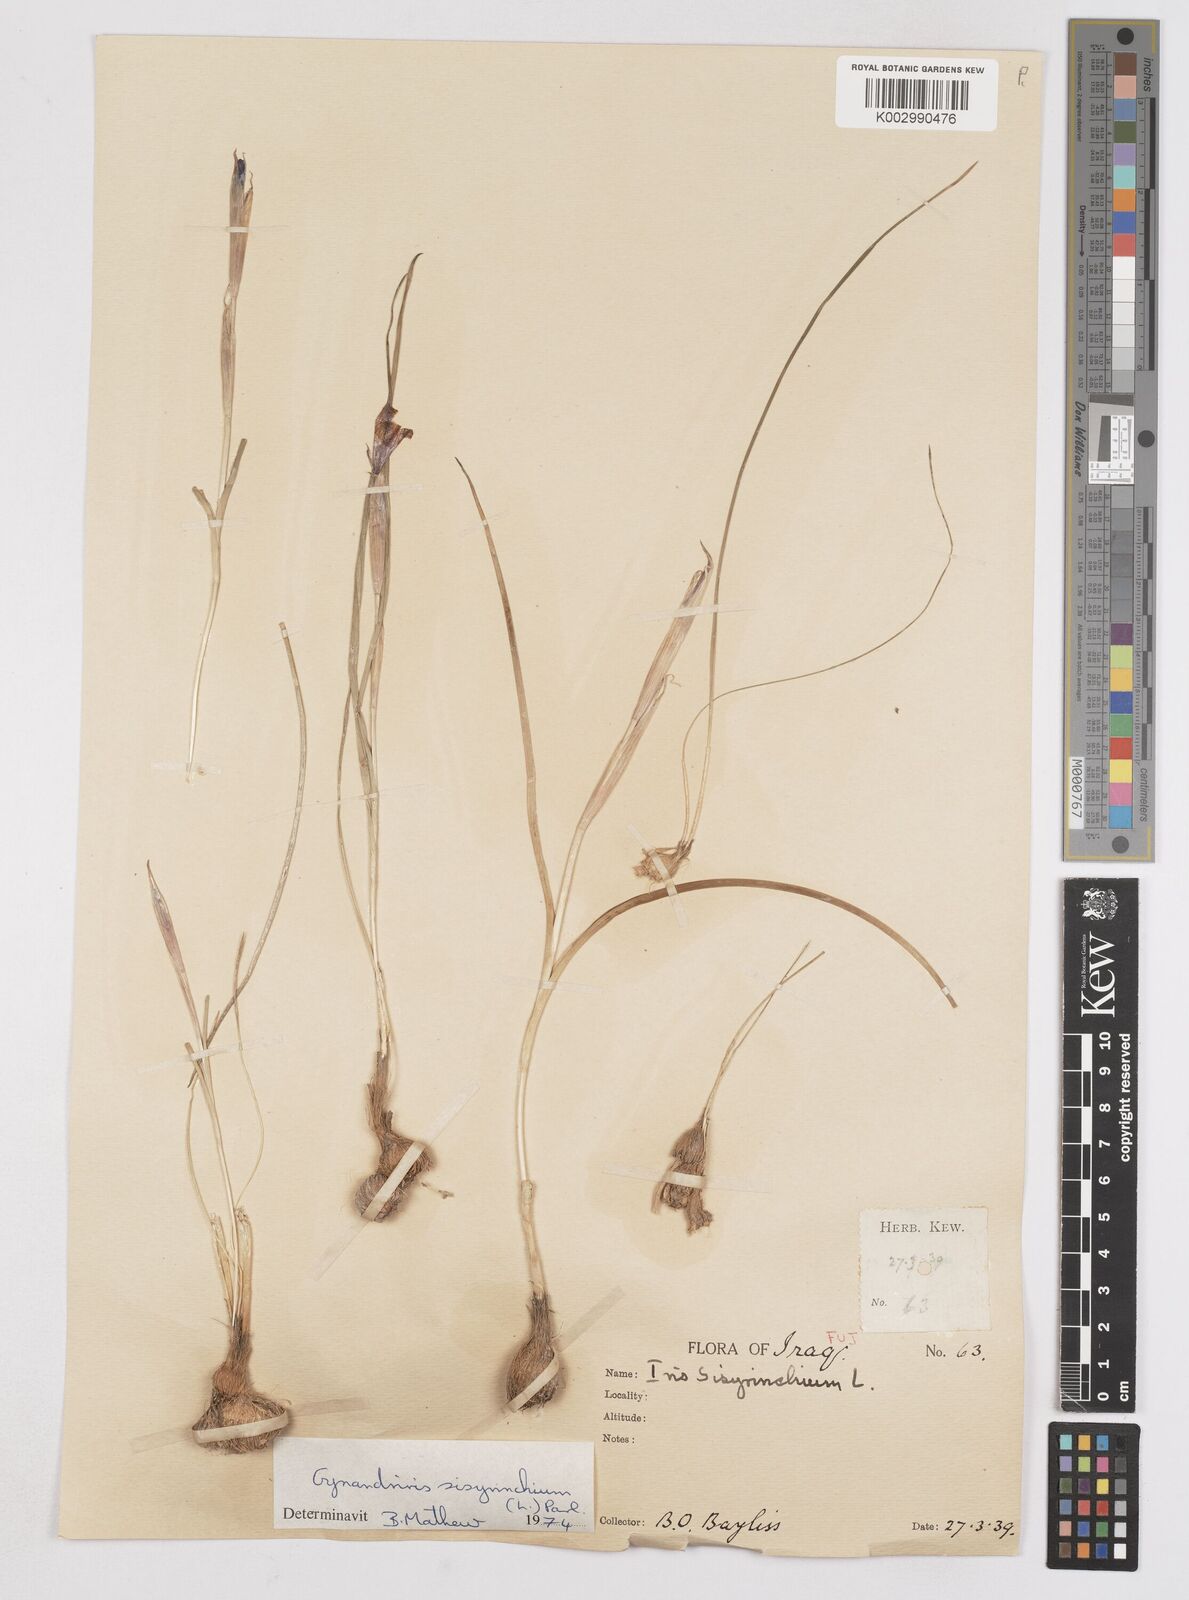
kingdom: Plantae
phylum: Tracheophyta
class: Liliopsida
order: Asparagales
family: Iridaceae
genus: Moraea
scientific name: Moraea sisyrinchium
